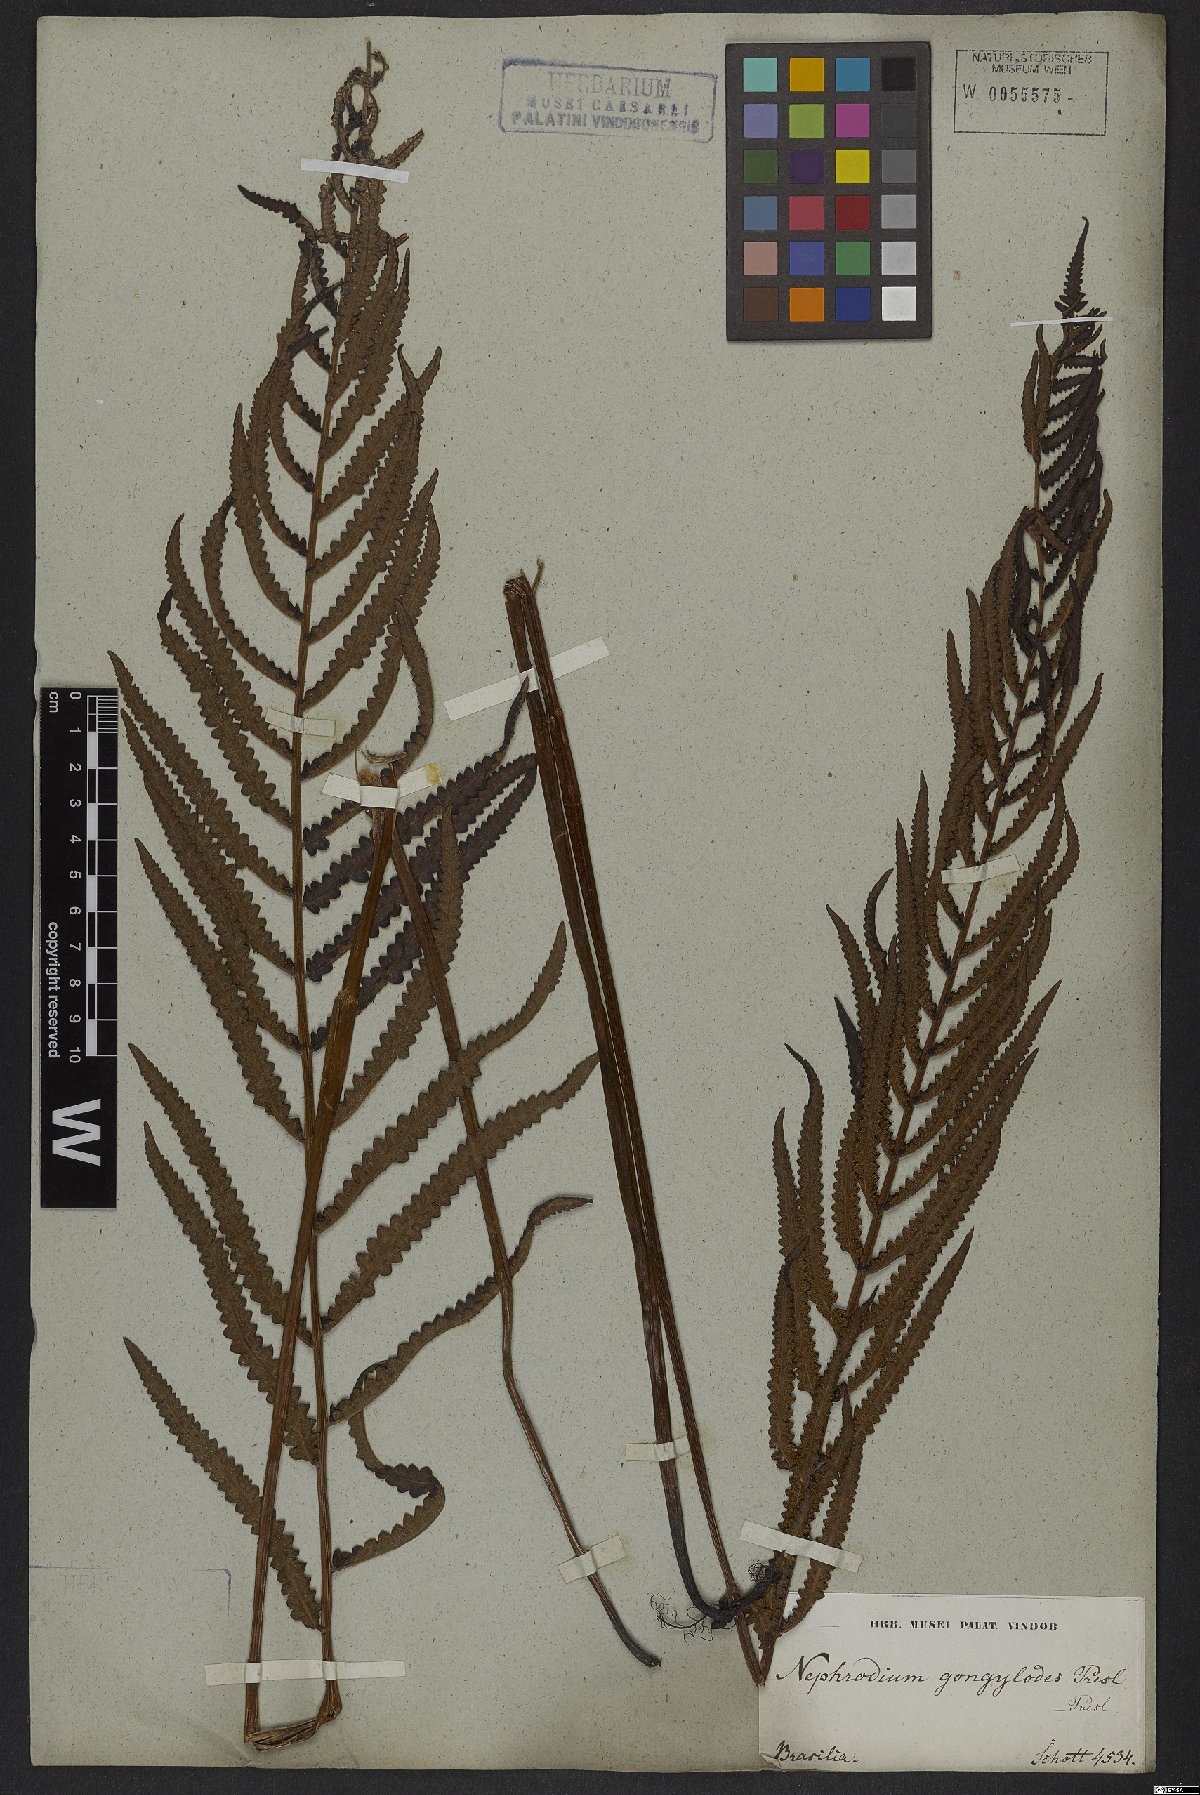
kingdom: Plantae
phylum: Tracheophyta
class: Polypodiopsida
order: Polypodiales
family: Thelypteridaceae
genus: Cyclosorus
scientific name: Cyclosorus interruptus
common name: Neke fern
